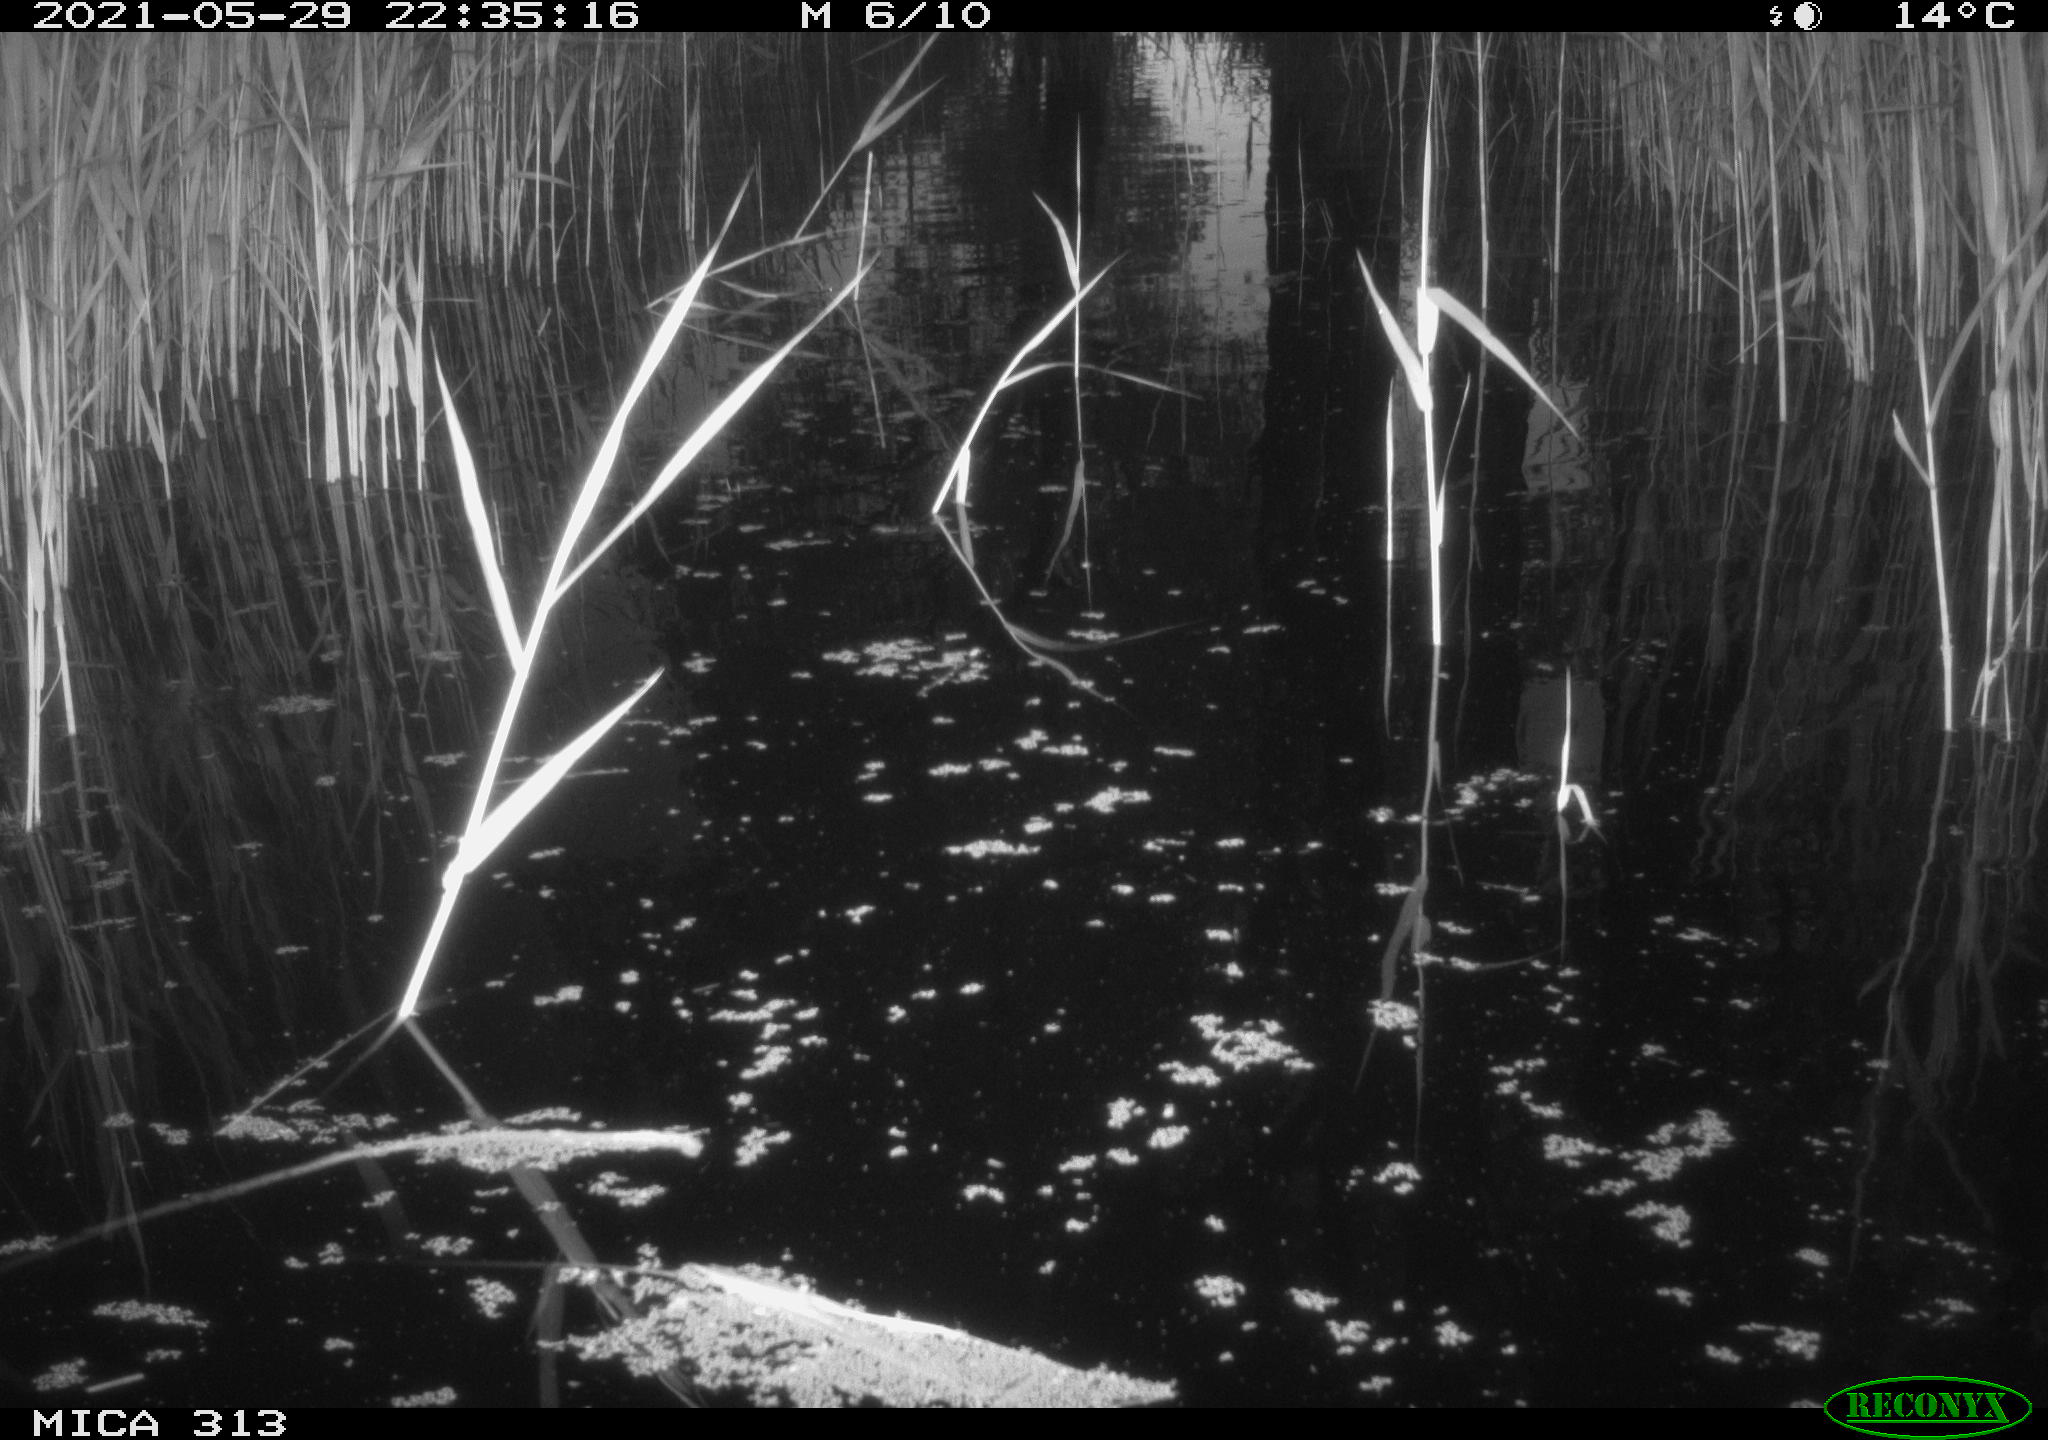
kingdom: Animalia
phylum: Chordata
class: Aves
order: Anseriformes
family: Anatidae
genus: Anas
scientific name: Anas platyrhynchos
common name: Mallard
